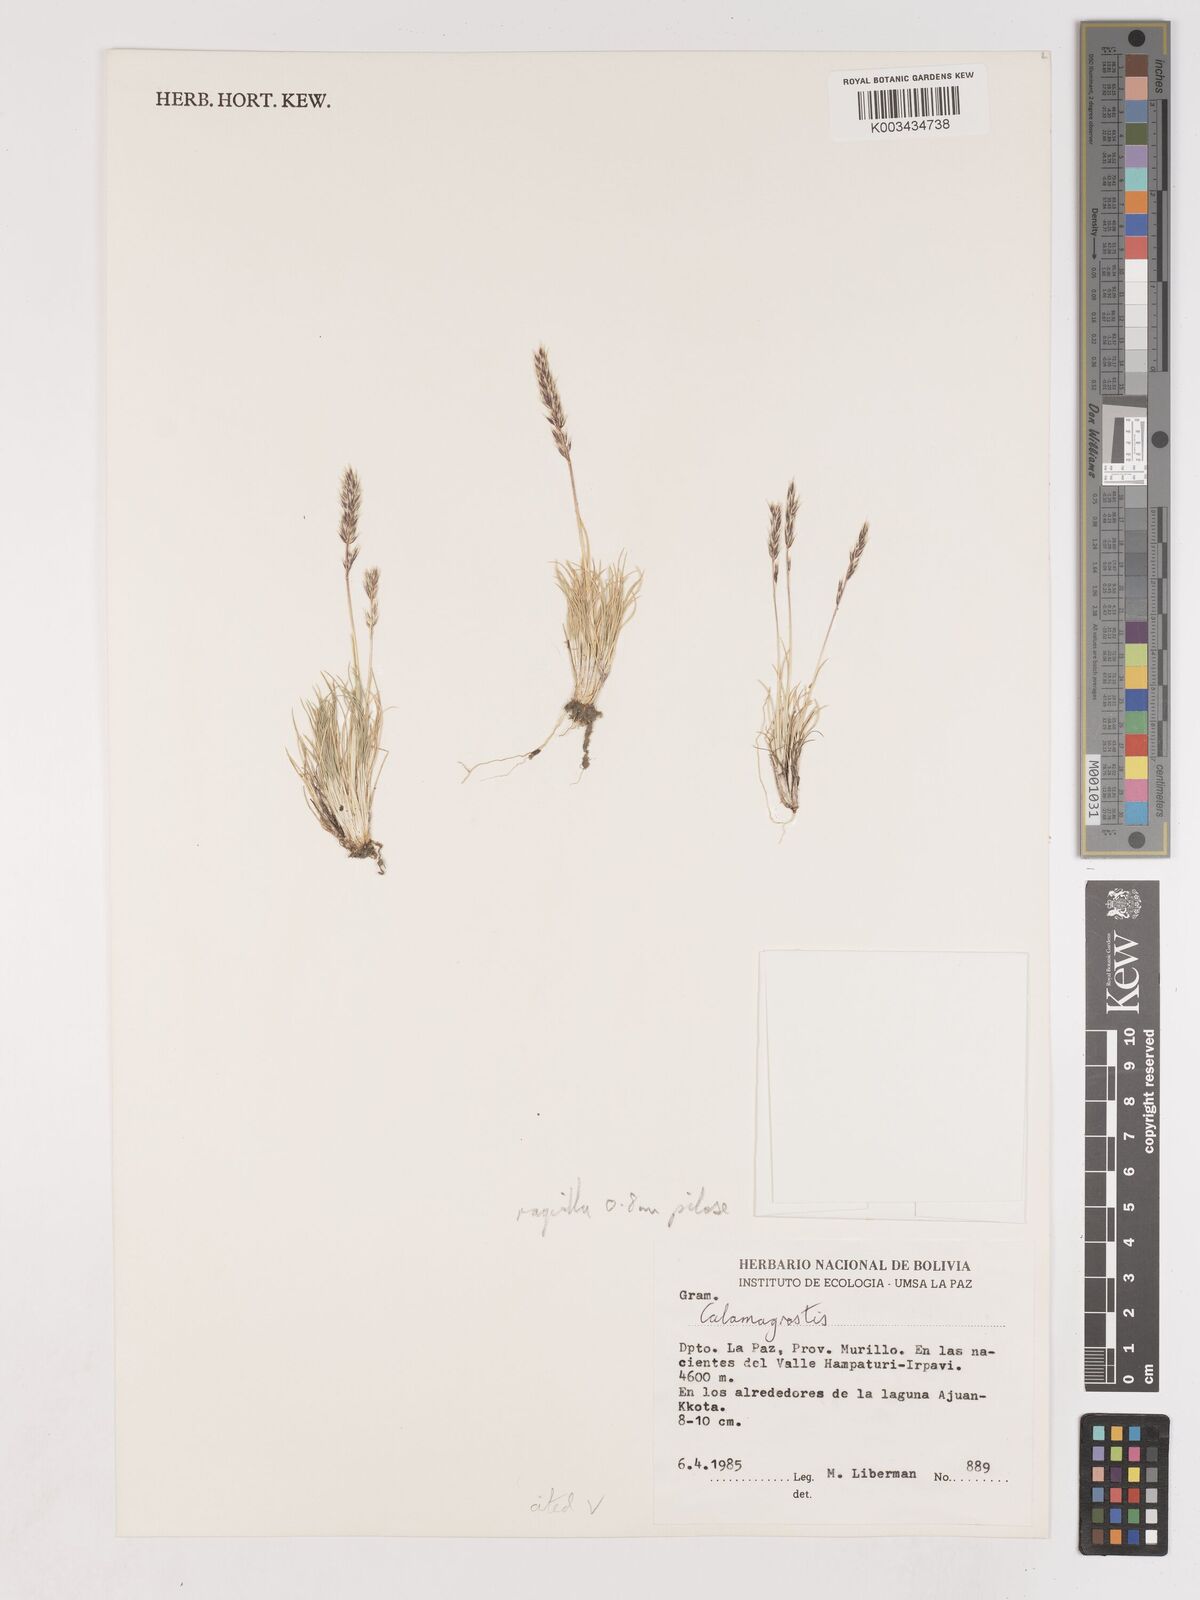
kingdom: Plantae
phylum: Tracheophyta
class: Liliopsida
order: Poales
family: Poaceae
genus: Cinnagrostis
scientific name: Cinnagrostis vicunarum
